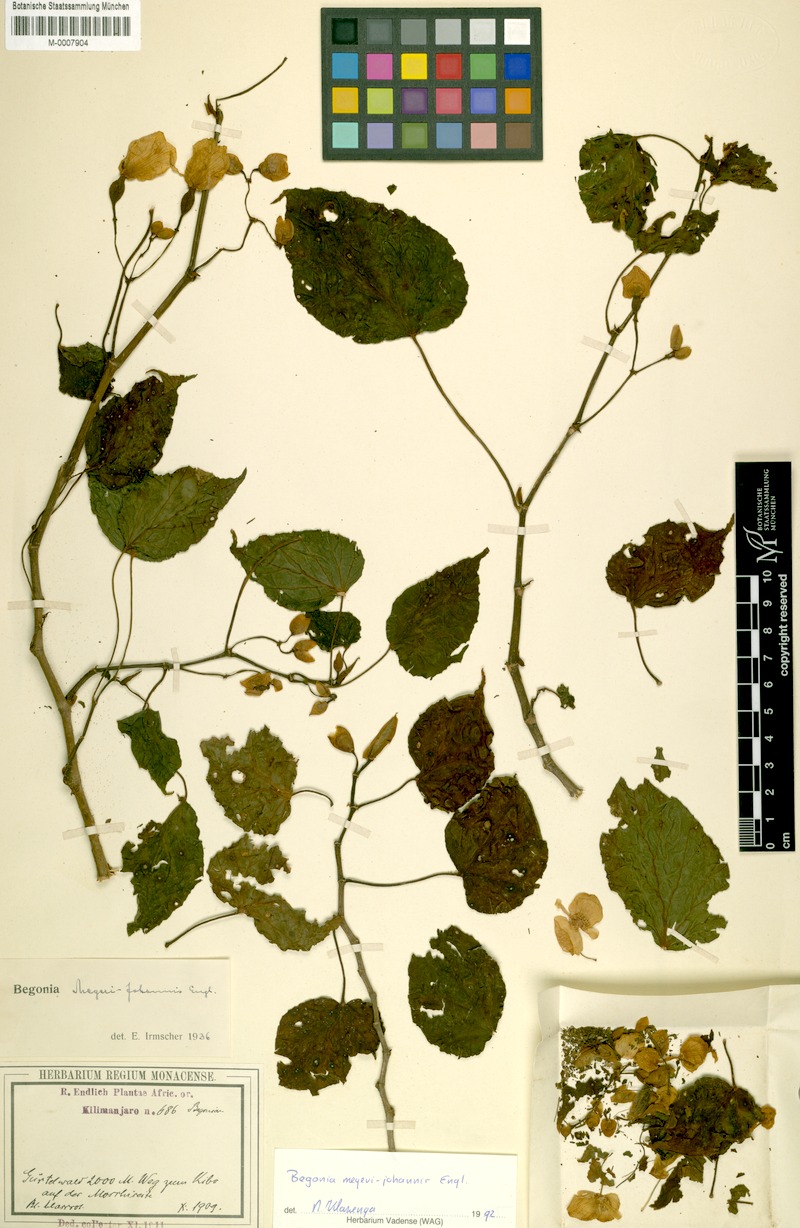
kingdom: Plantae
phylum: Tracheophyta
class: Magnoliopsida
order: Cucurbitales
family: Begoniaceae
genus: Begonia
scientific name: Begonia meyeri-johannis
